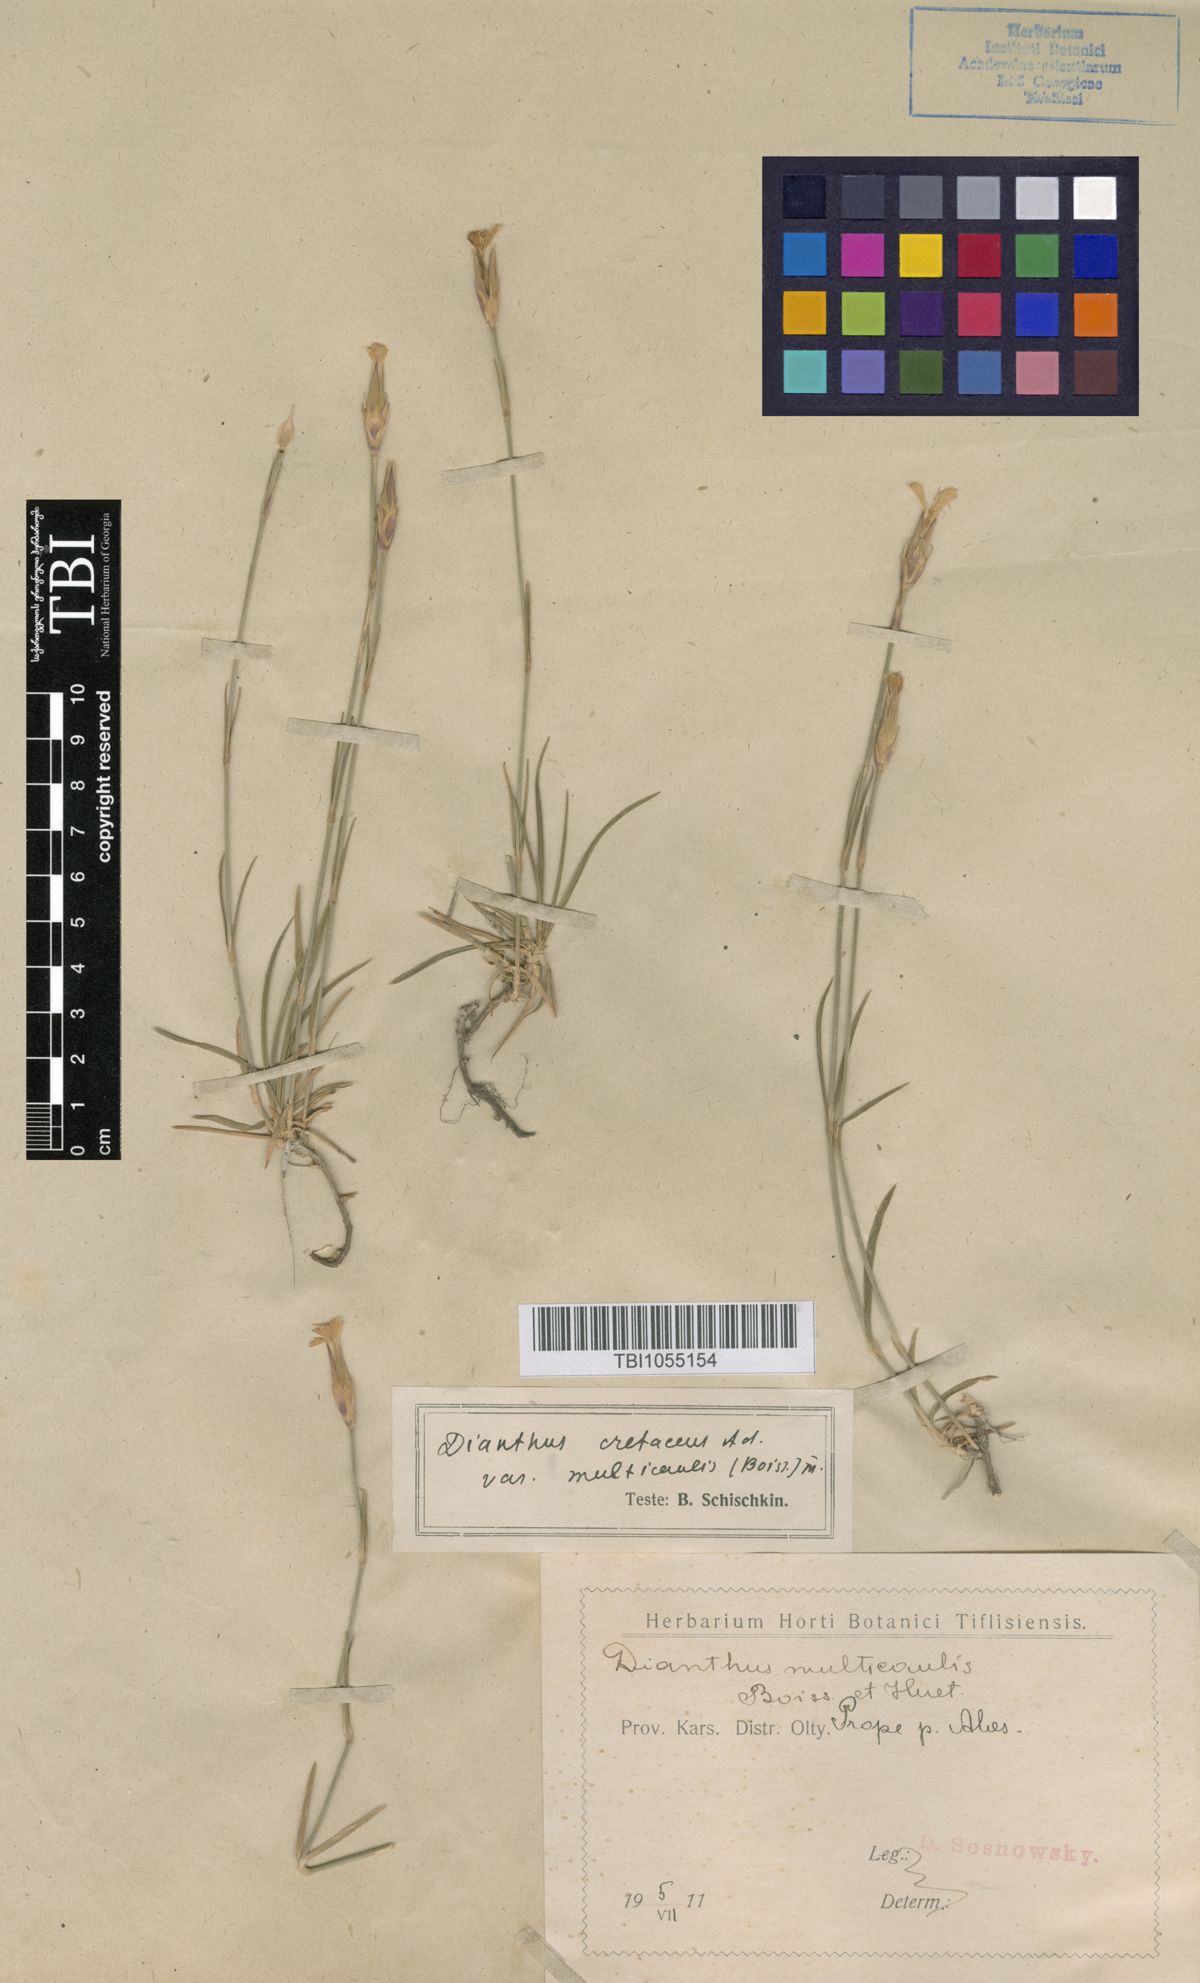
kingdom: Plantae
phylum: Tracheophyta
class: Magnoliopsida
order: Caryophyllales
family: Caryophyllaceae
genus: Dianthus
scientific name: Dianthus cretaceus
